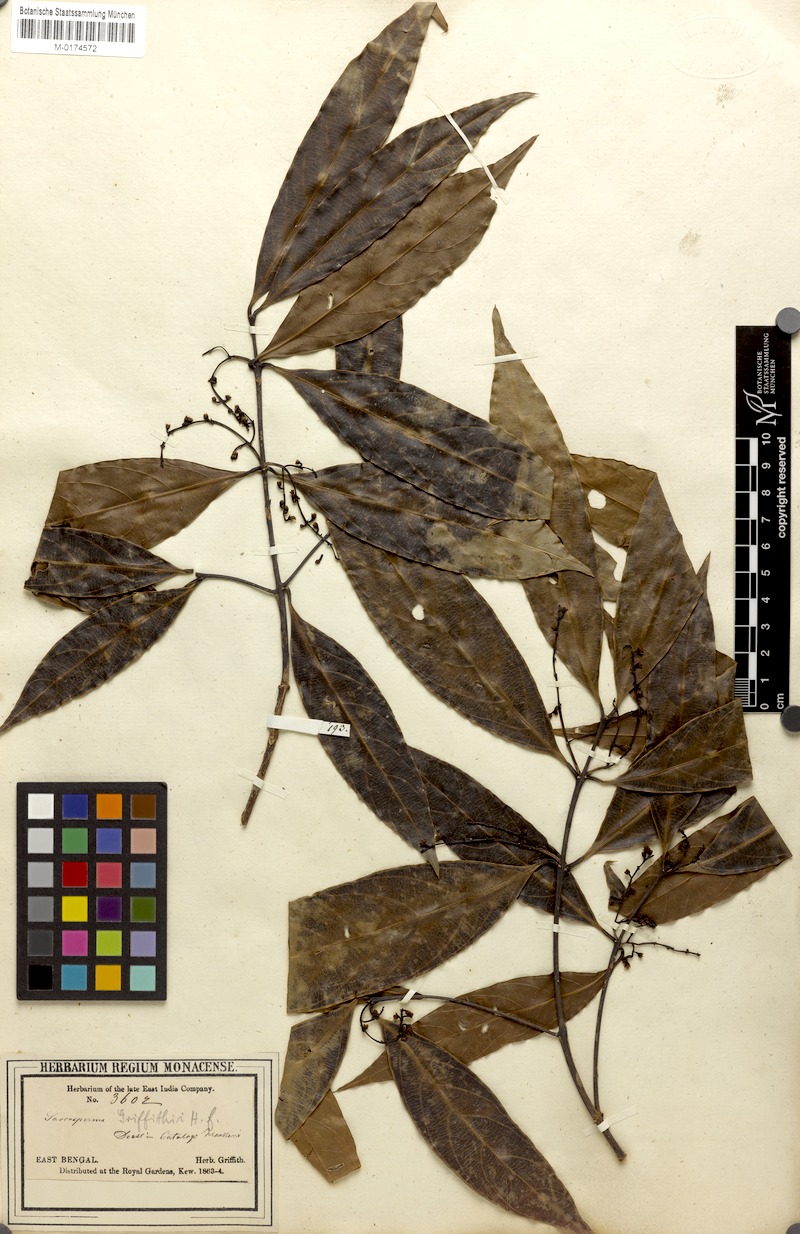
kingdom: Plantae
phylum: Tracheophyta
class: Magnoliopsida
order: Ericales
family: Sapotaceae
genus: Sarcosperma
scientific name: Sarcosperma griffithii
